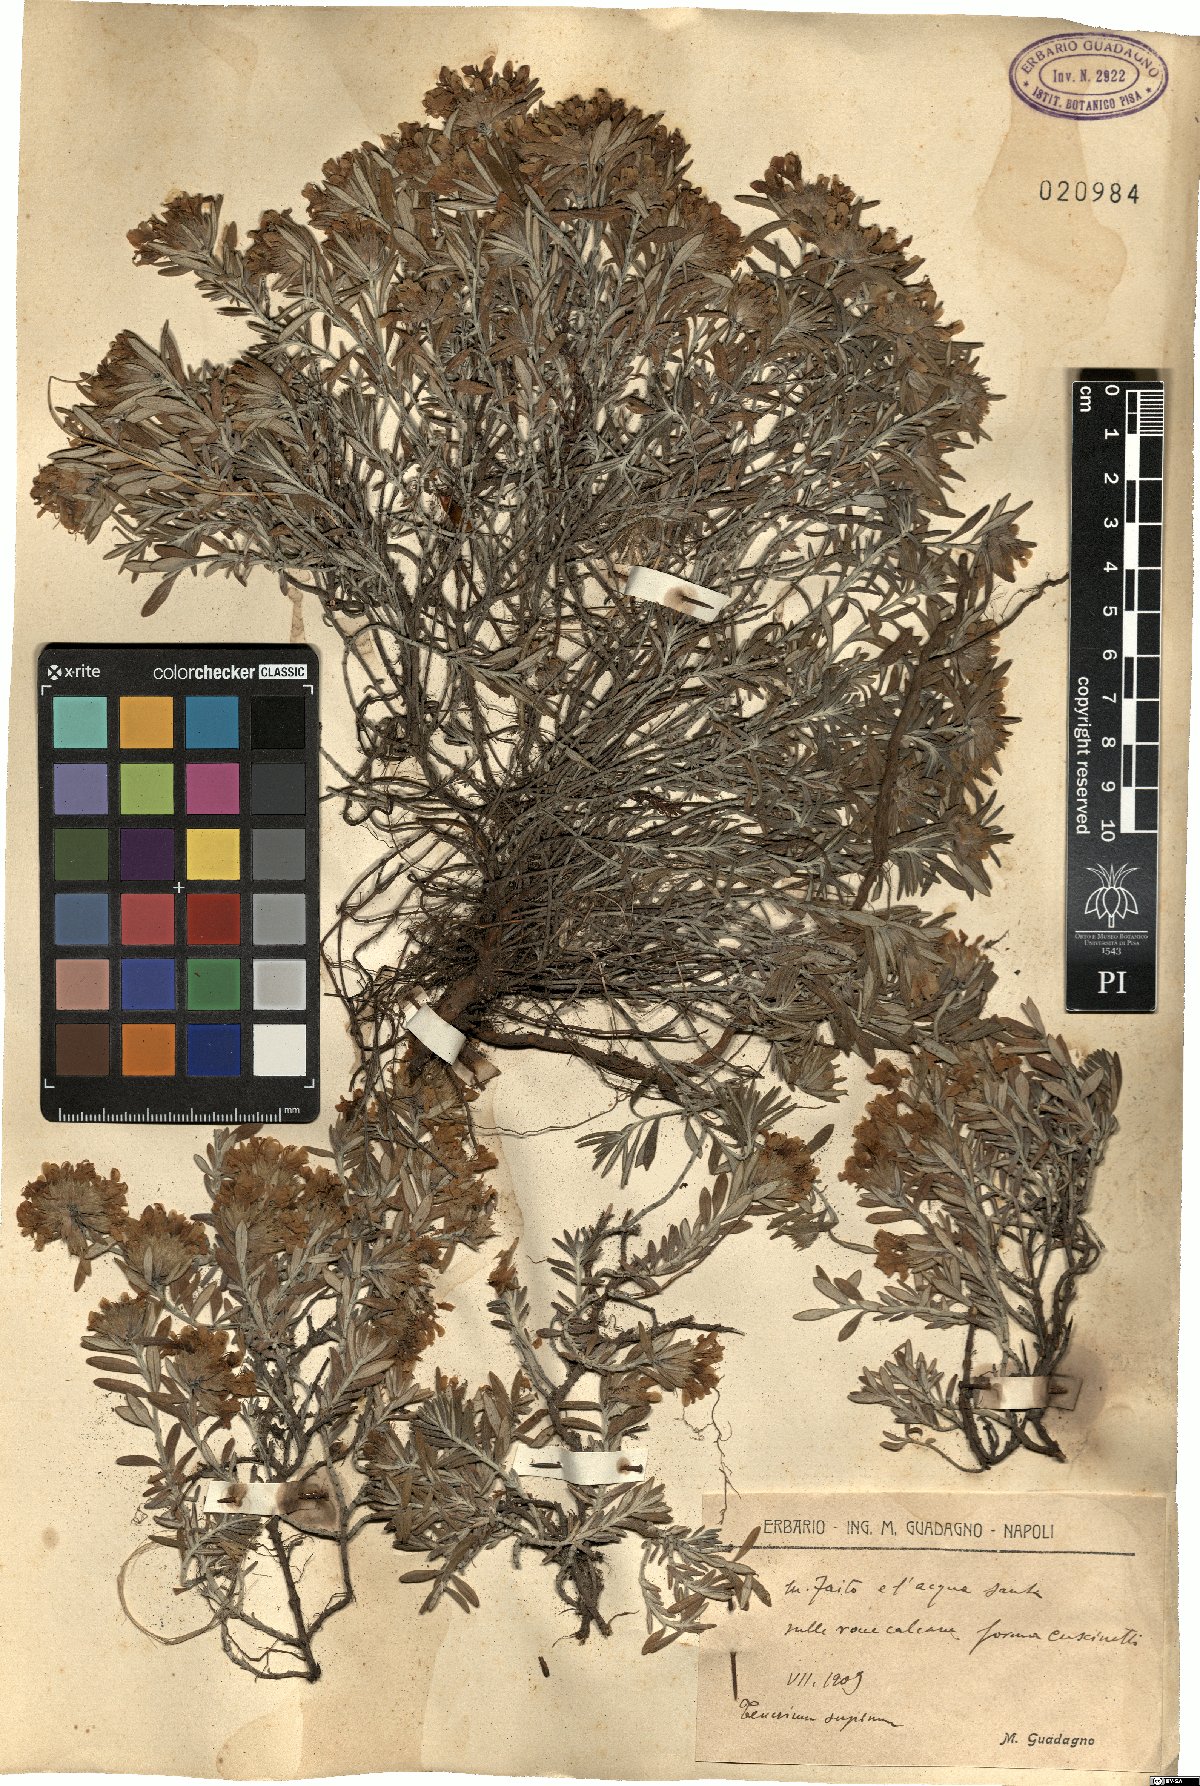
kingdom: Plantae
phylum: Tracheophyta
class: Magnoliopsida
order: Lamiales
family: Lamiaceae
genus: Teucrium
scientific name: Teucrium montanum
